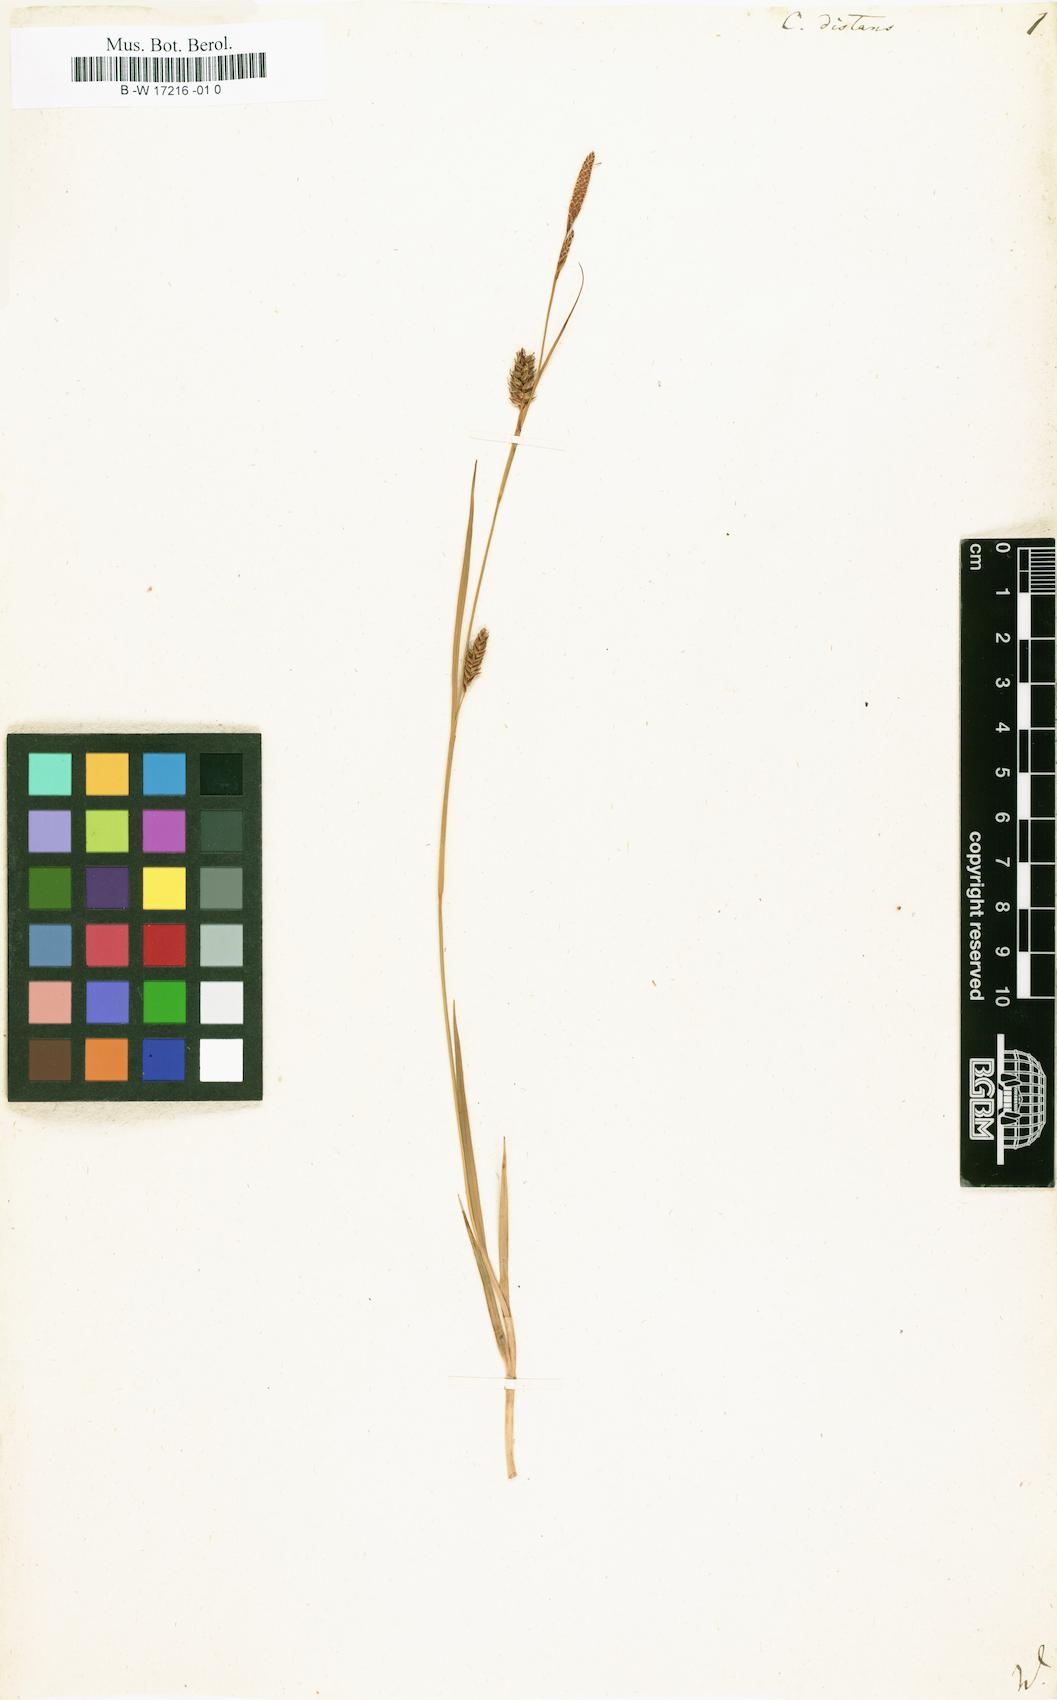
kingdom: Plantae
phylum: Tracheophyta
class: Liliopsida
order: Poales
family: Cyperaceae
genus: Carex
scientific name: Carex distans
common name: Distant sedge
